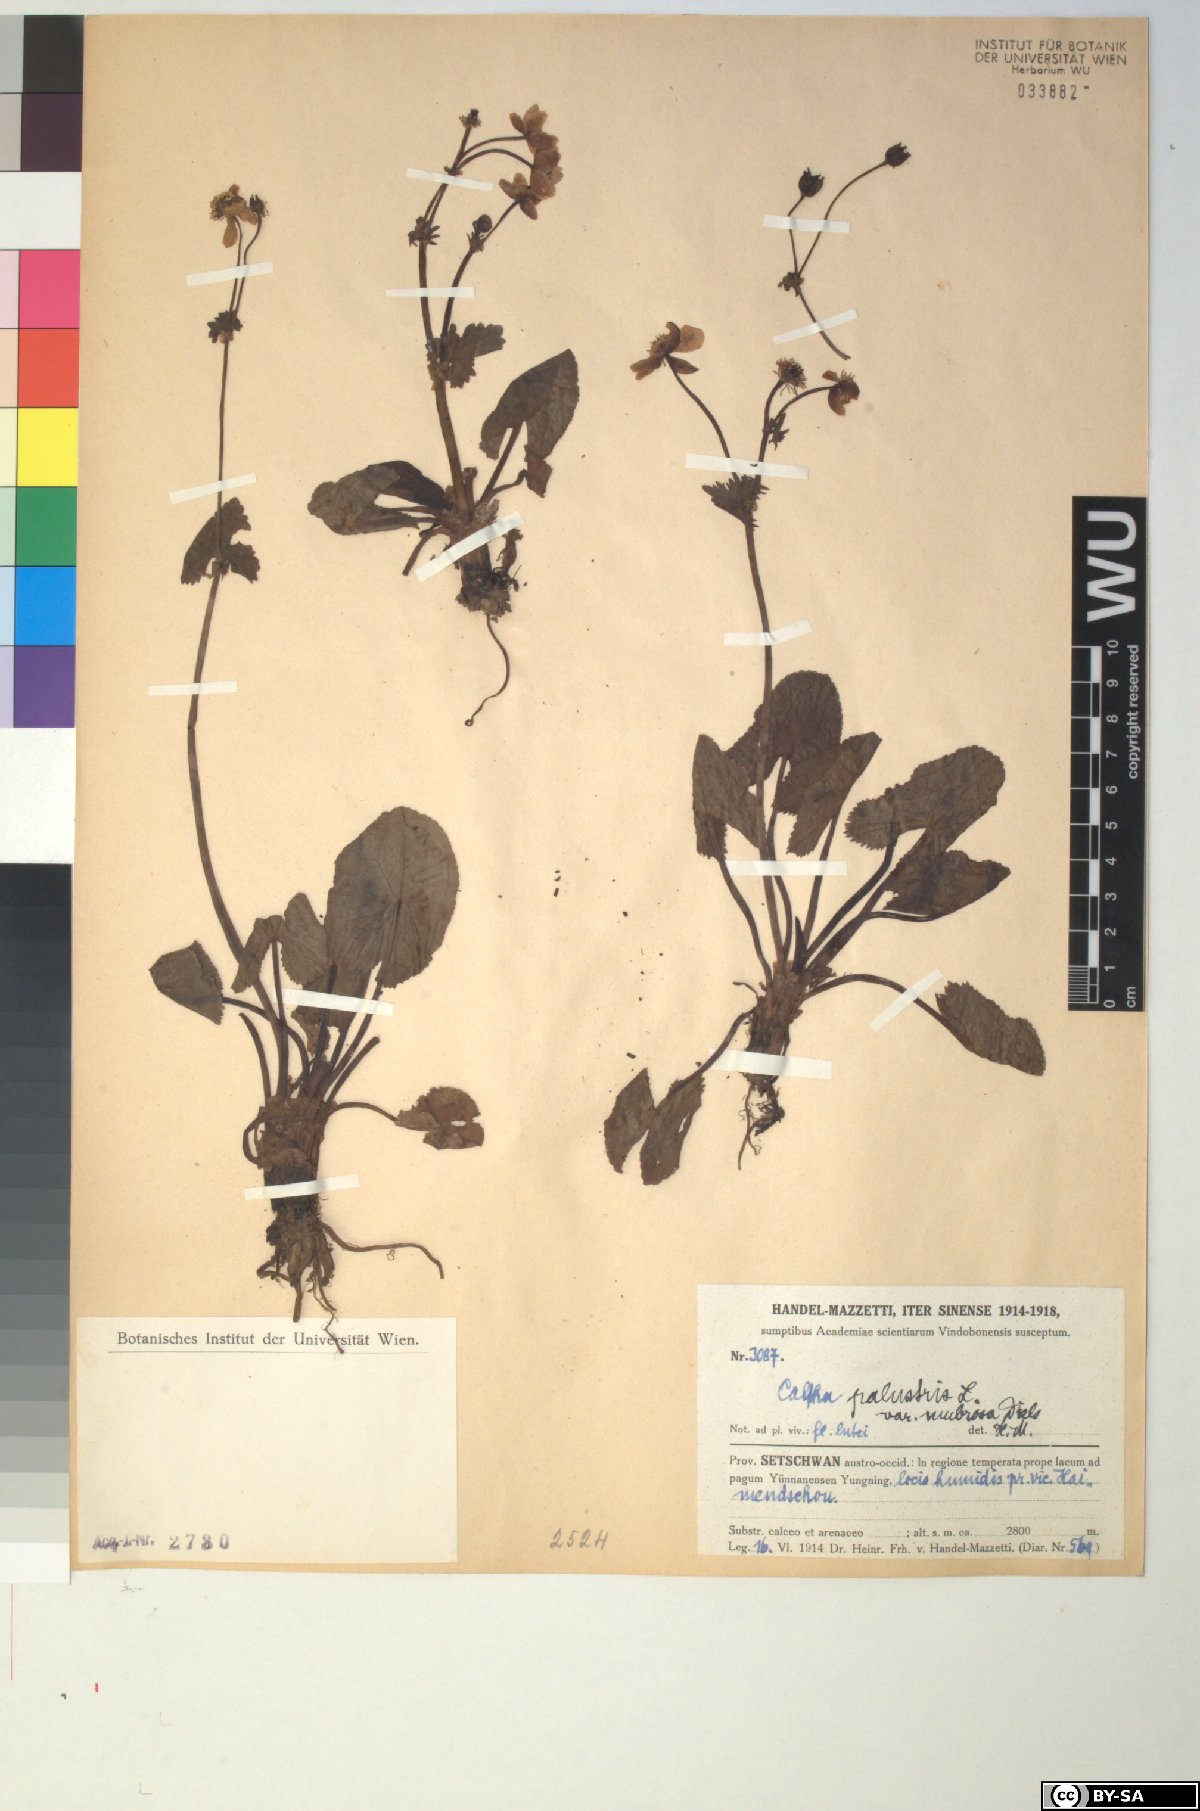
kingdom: Plantae
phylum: Tracheophyta
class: Magnoliopsida
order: Ranunculales
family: Ranunculaceae
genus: Caltha
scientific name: Caltha palustris
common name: Marsh marigold
